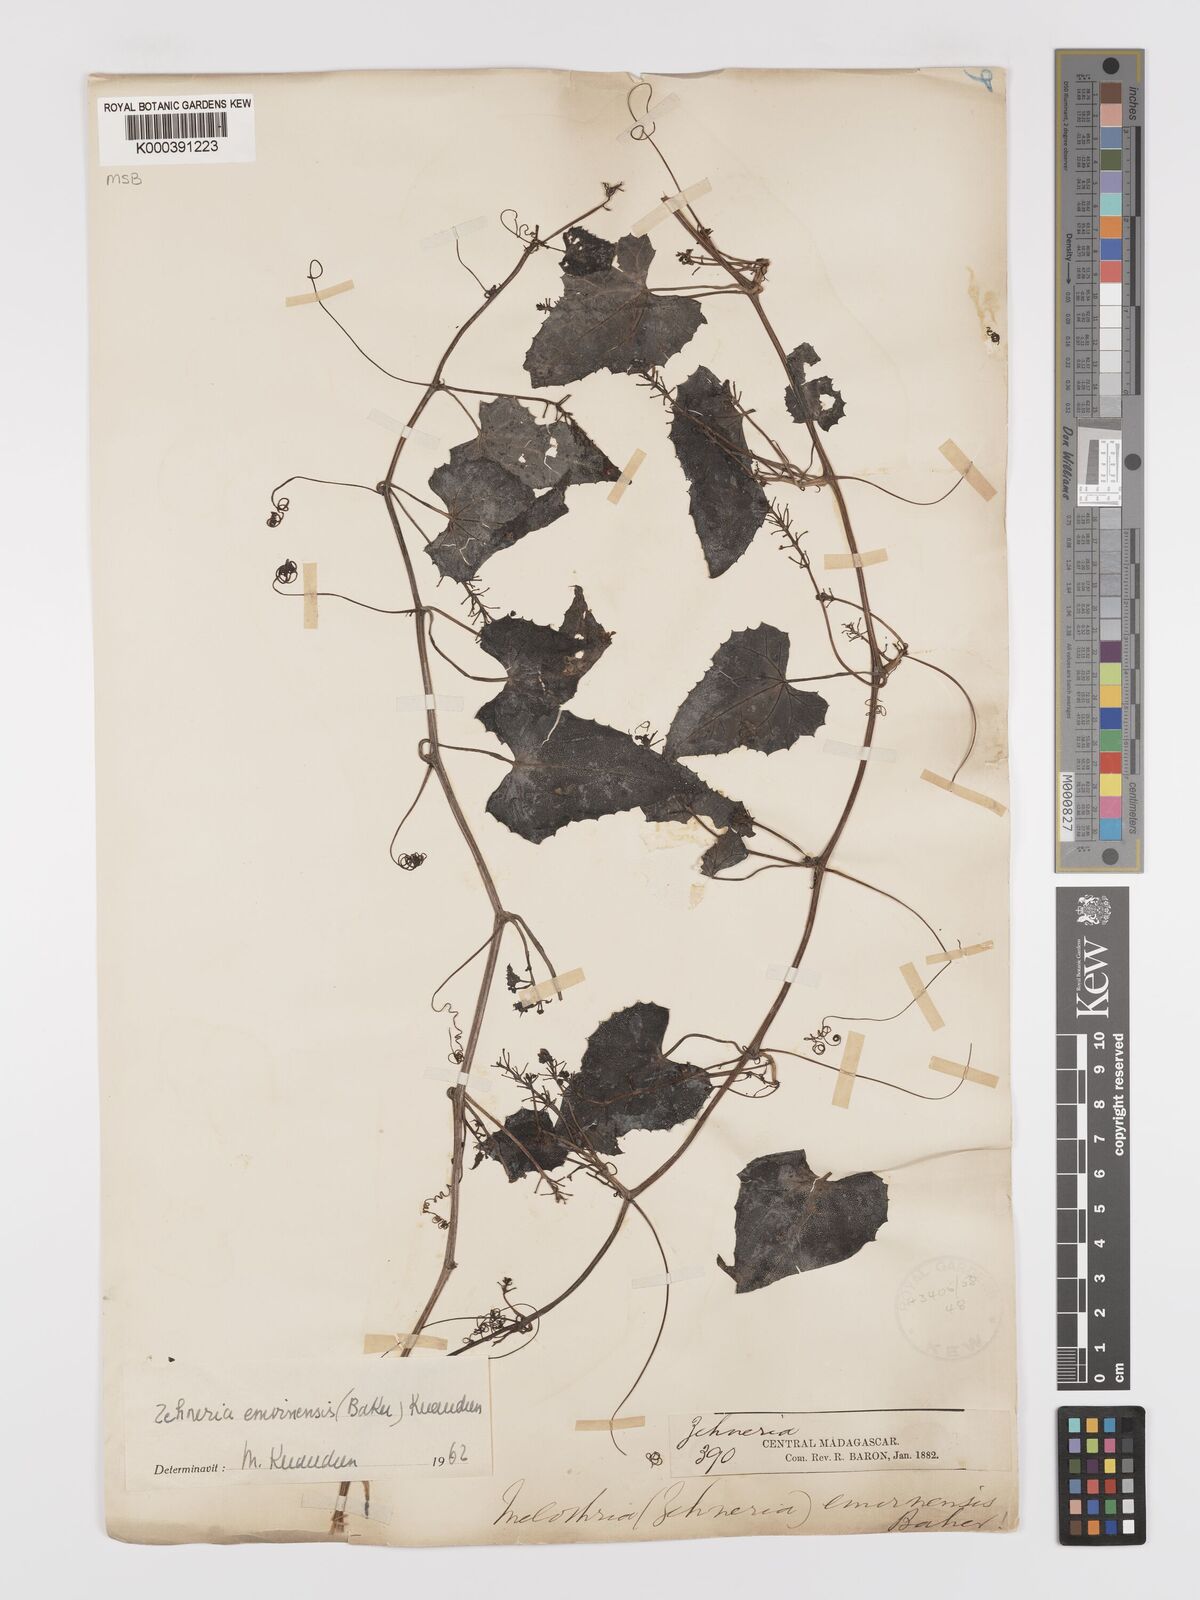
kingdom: Plantae
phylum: Tracheophyta
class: Magnoliopsida
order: Cucurbitales
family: Cucurbitaceae
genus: Zehneria
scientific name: Zehneria emirnensis
